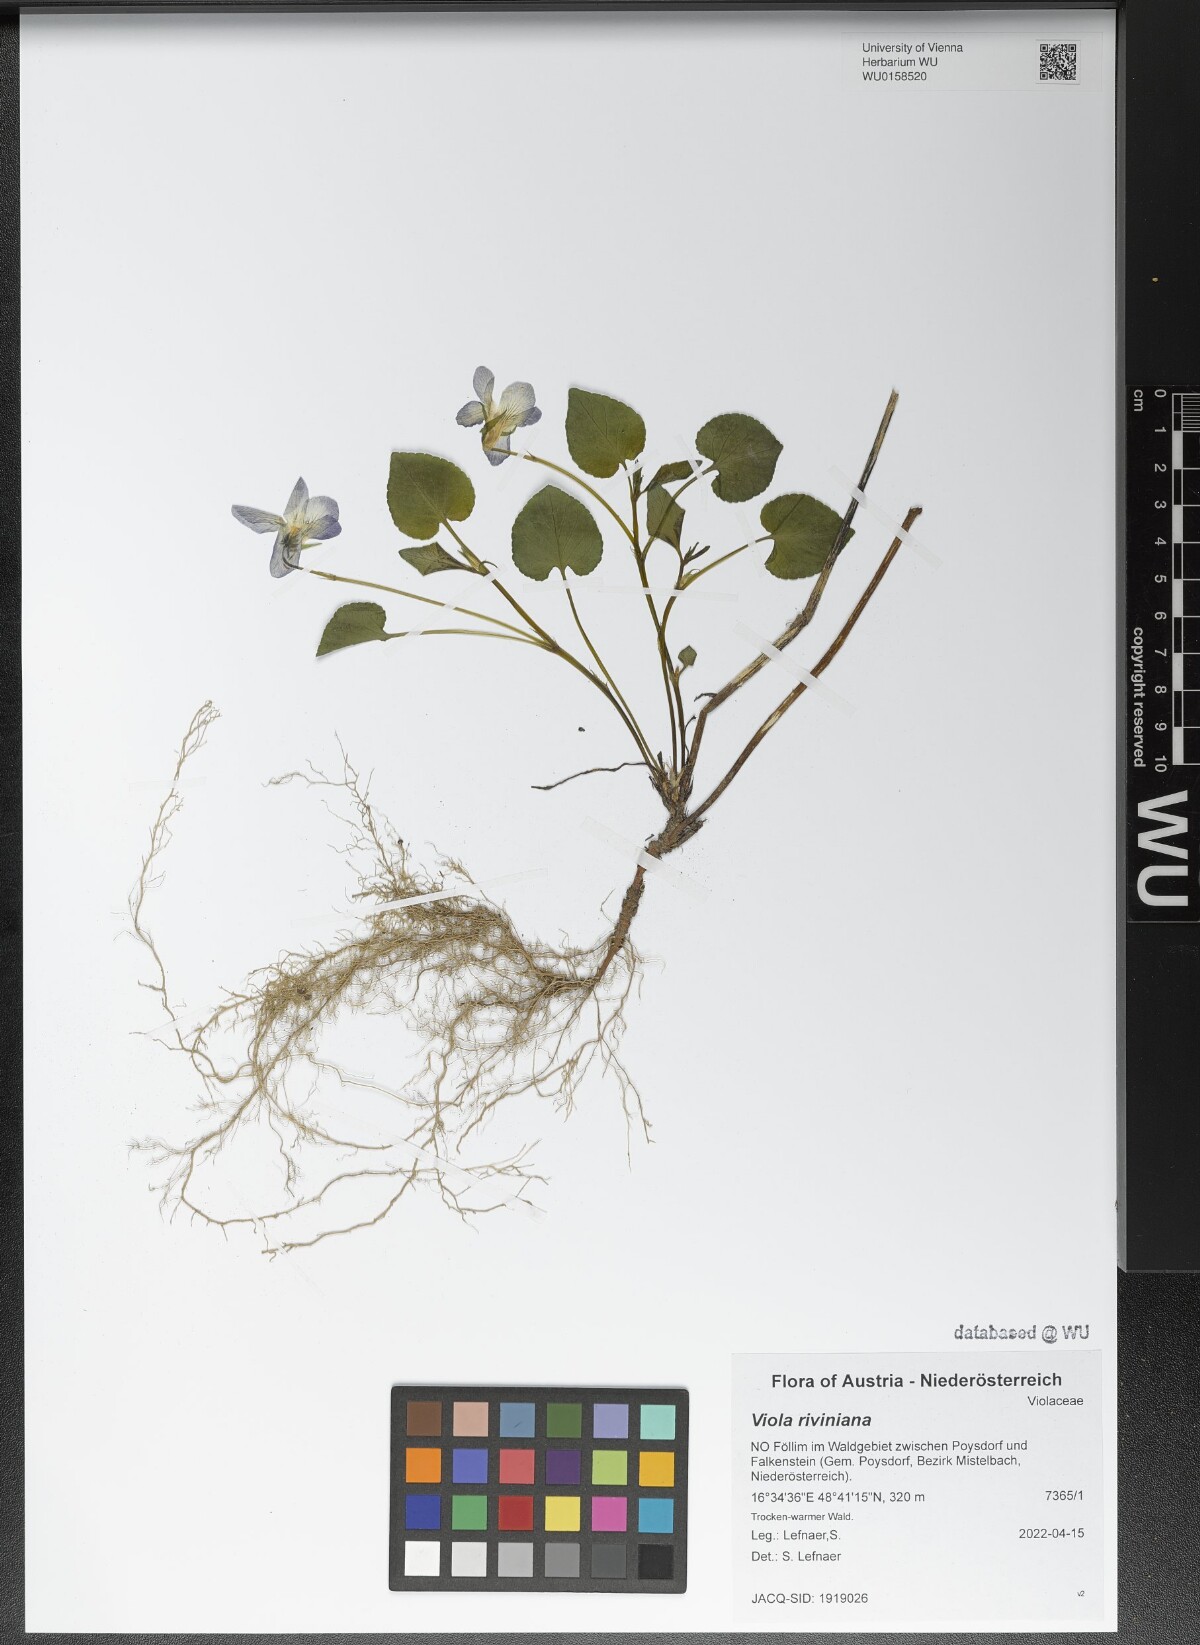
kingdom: Plantae
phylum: Tracheophyta
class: Magnoliopsida
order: Malpighiales
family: Violaceae
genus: Viola
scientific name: Viola riviniana
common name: Common dog-violet
